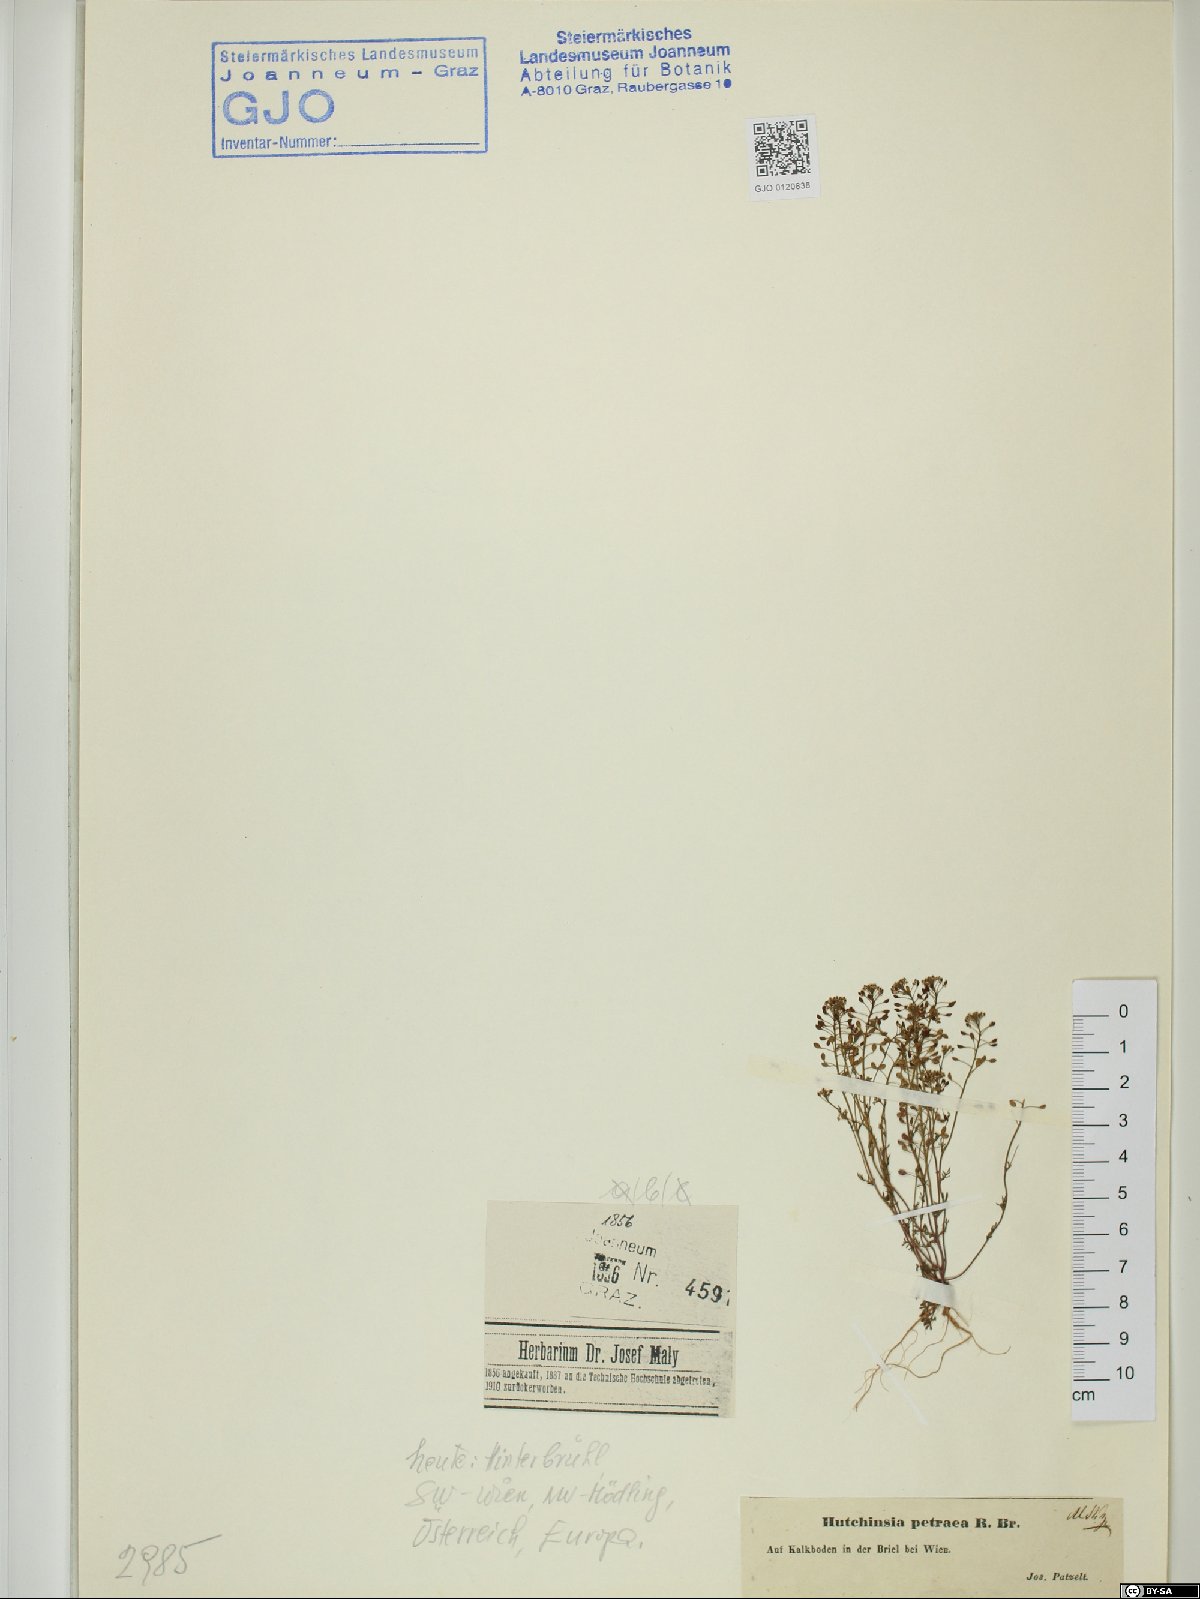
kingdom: Plantae
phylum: Tracheophyta
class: Magnoliopsida
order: Brassicales
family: Brassicaceae
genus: Hornungia
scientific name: Hornungia petraea
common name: Hutchinsia
